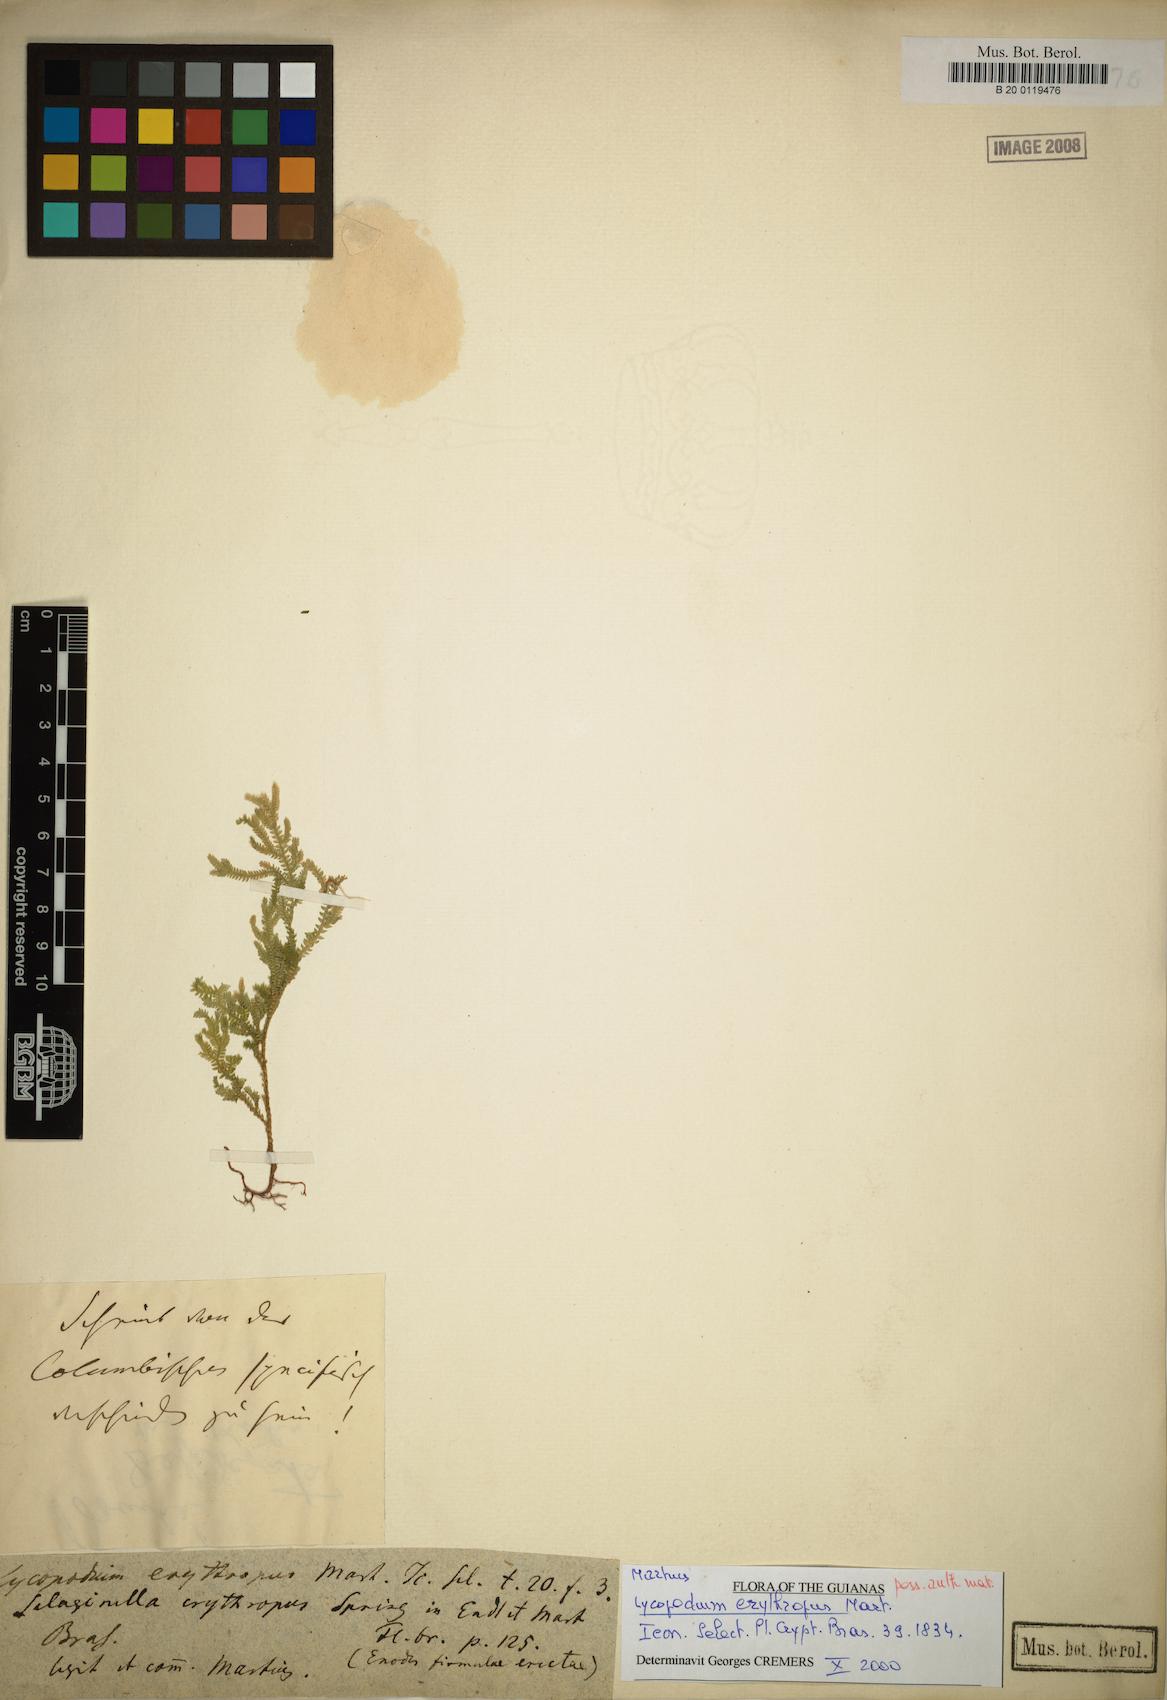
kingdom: Plantae
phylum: Tracheophyta
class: Lycopodiopsida
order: Selaginellales
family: Selaginellaceae
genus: Selaginella
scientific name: Selaginella erythropus
